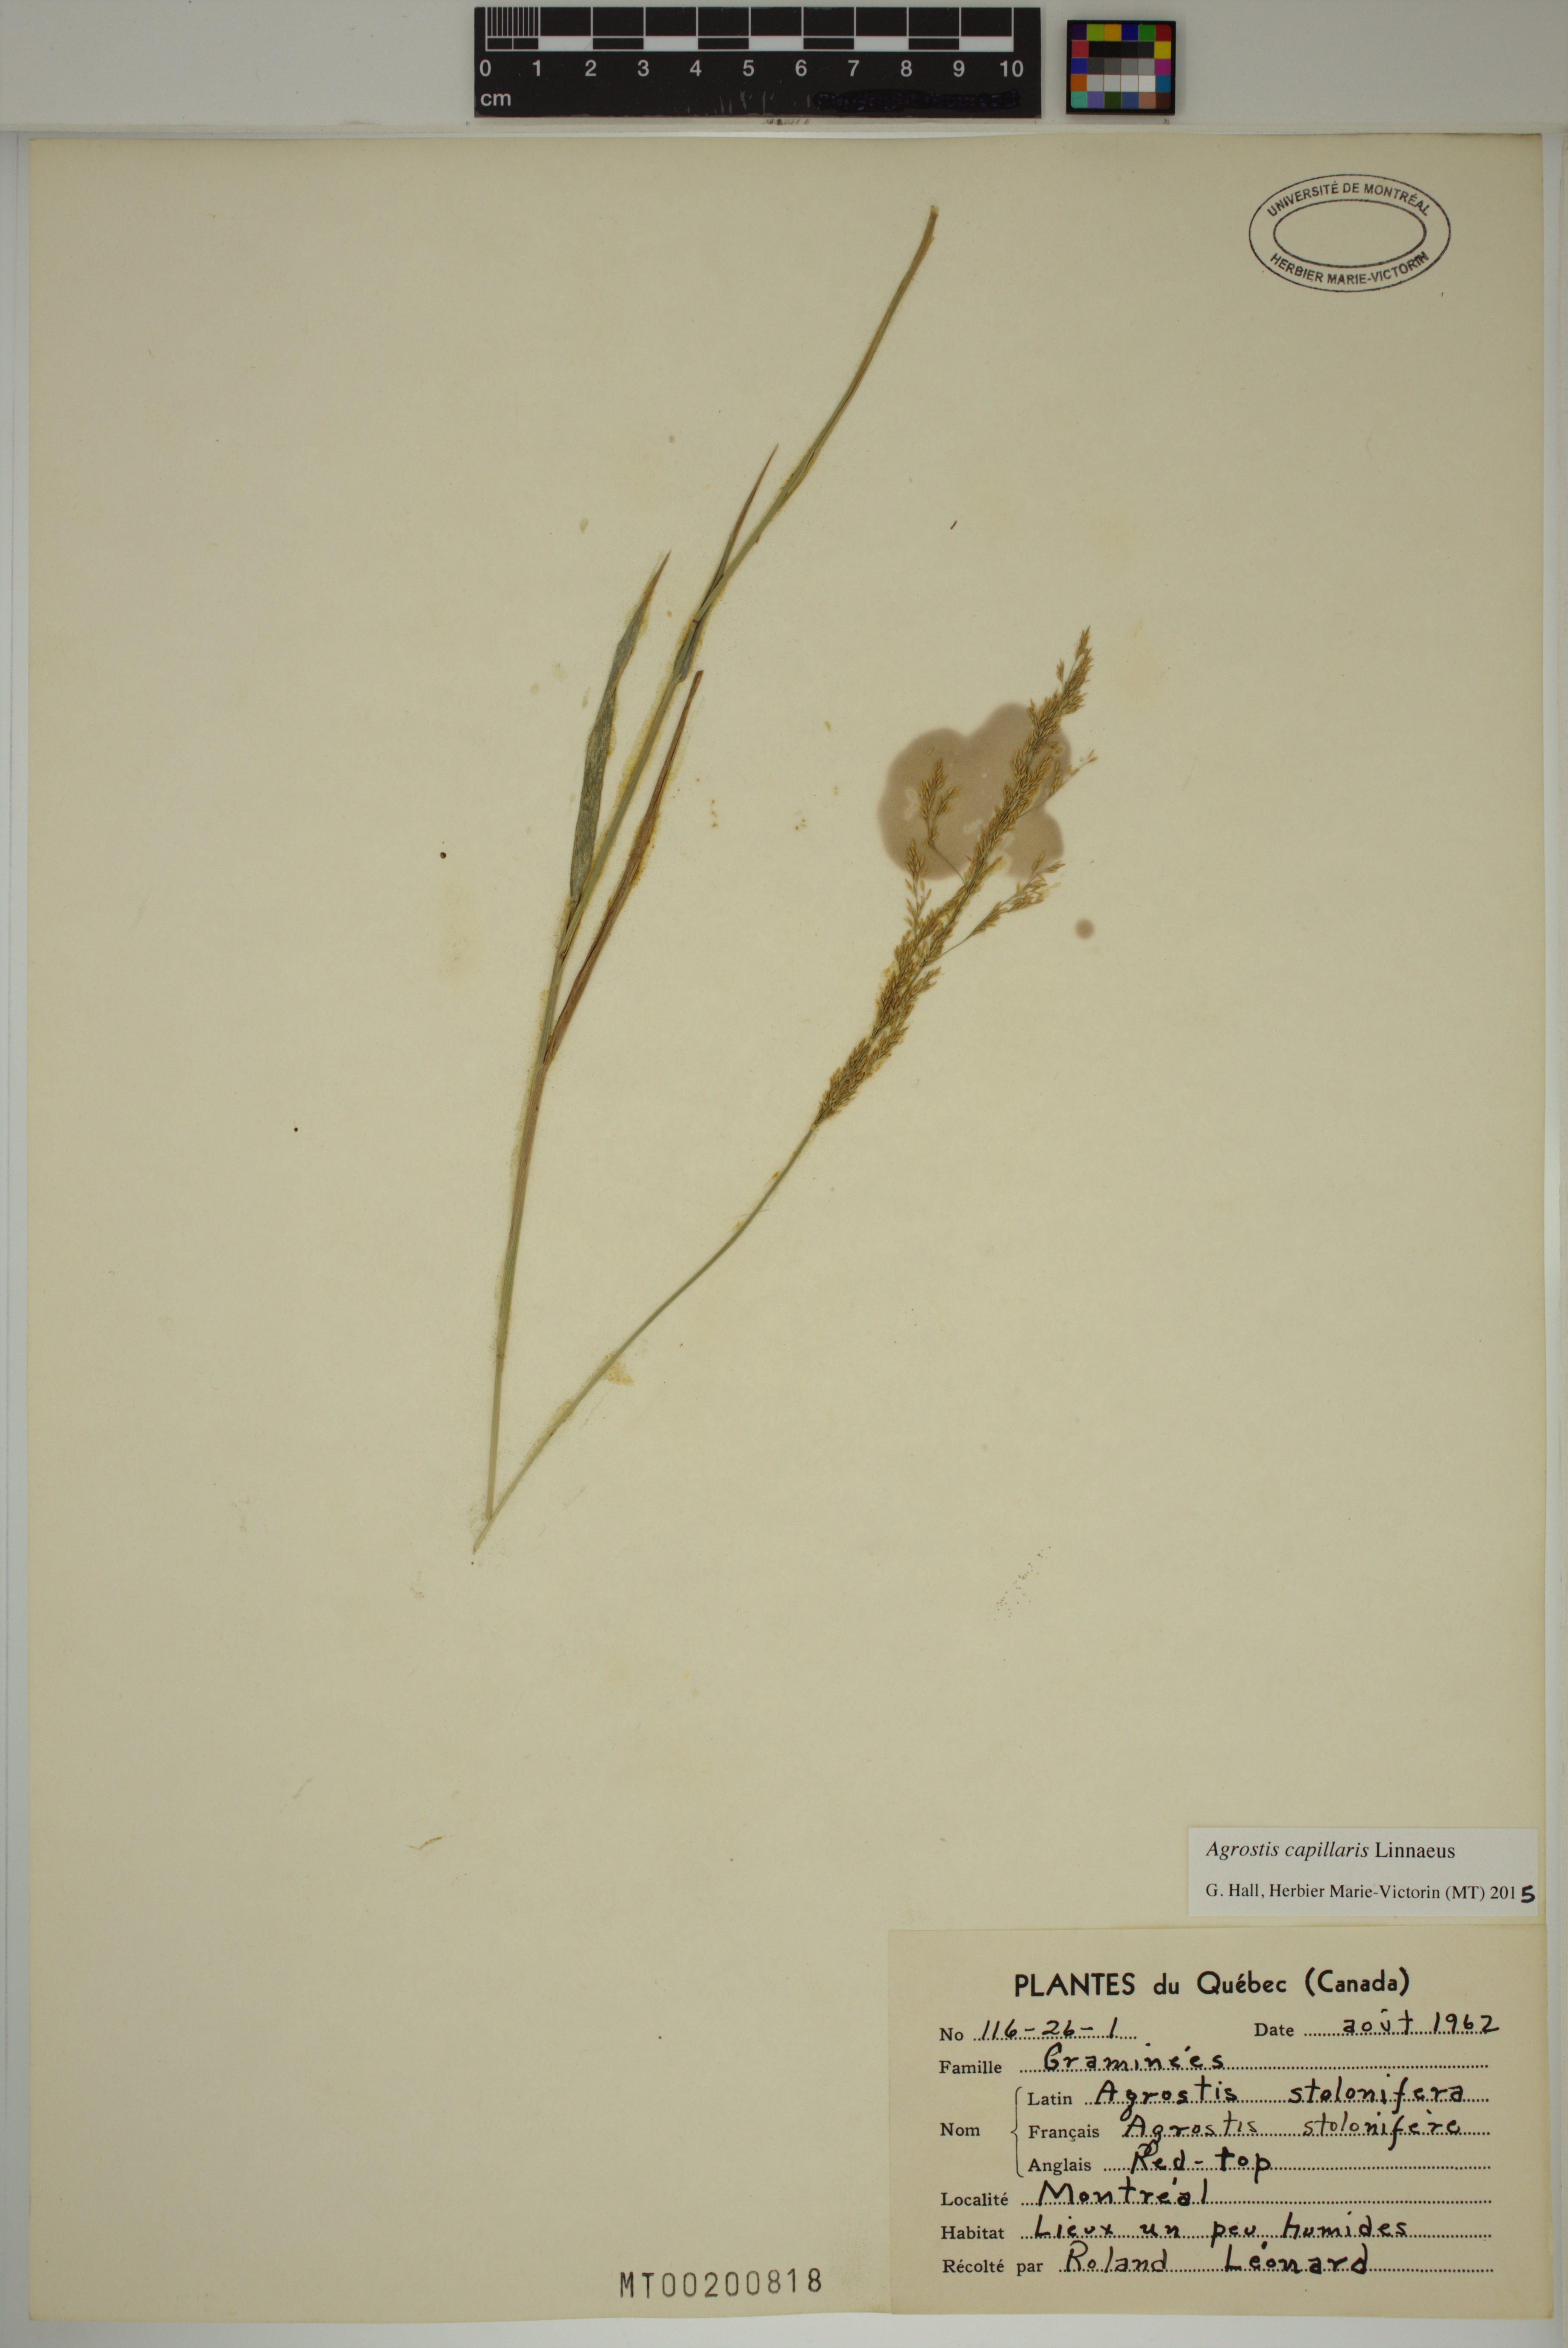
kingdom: Plantae
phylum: Tracheophyta
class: Liliopsida
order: Poales
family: Poaceae
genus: Agrostis
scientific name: Agrostis capillaris
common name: Colonial bentgrass
